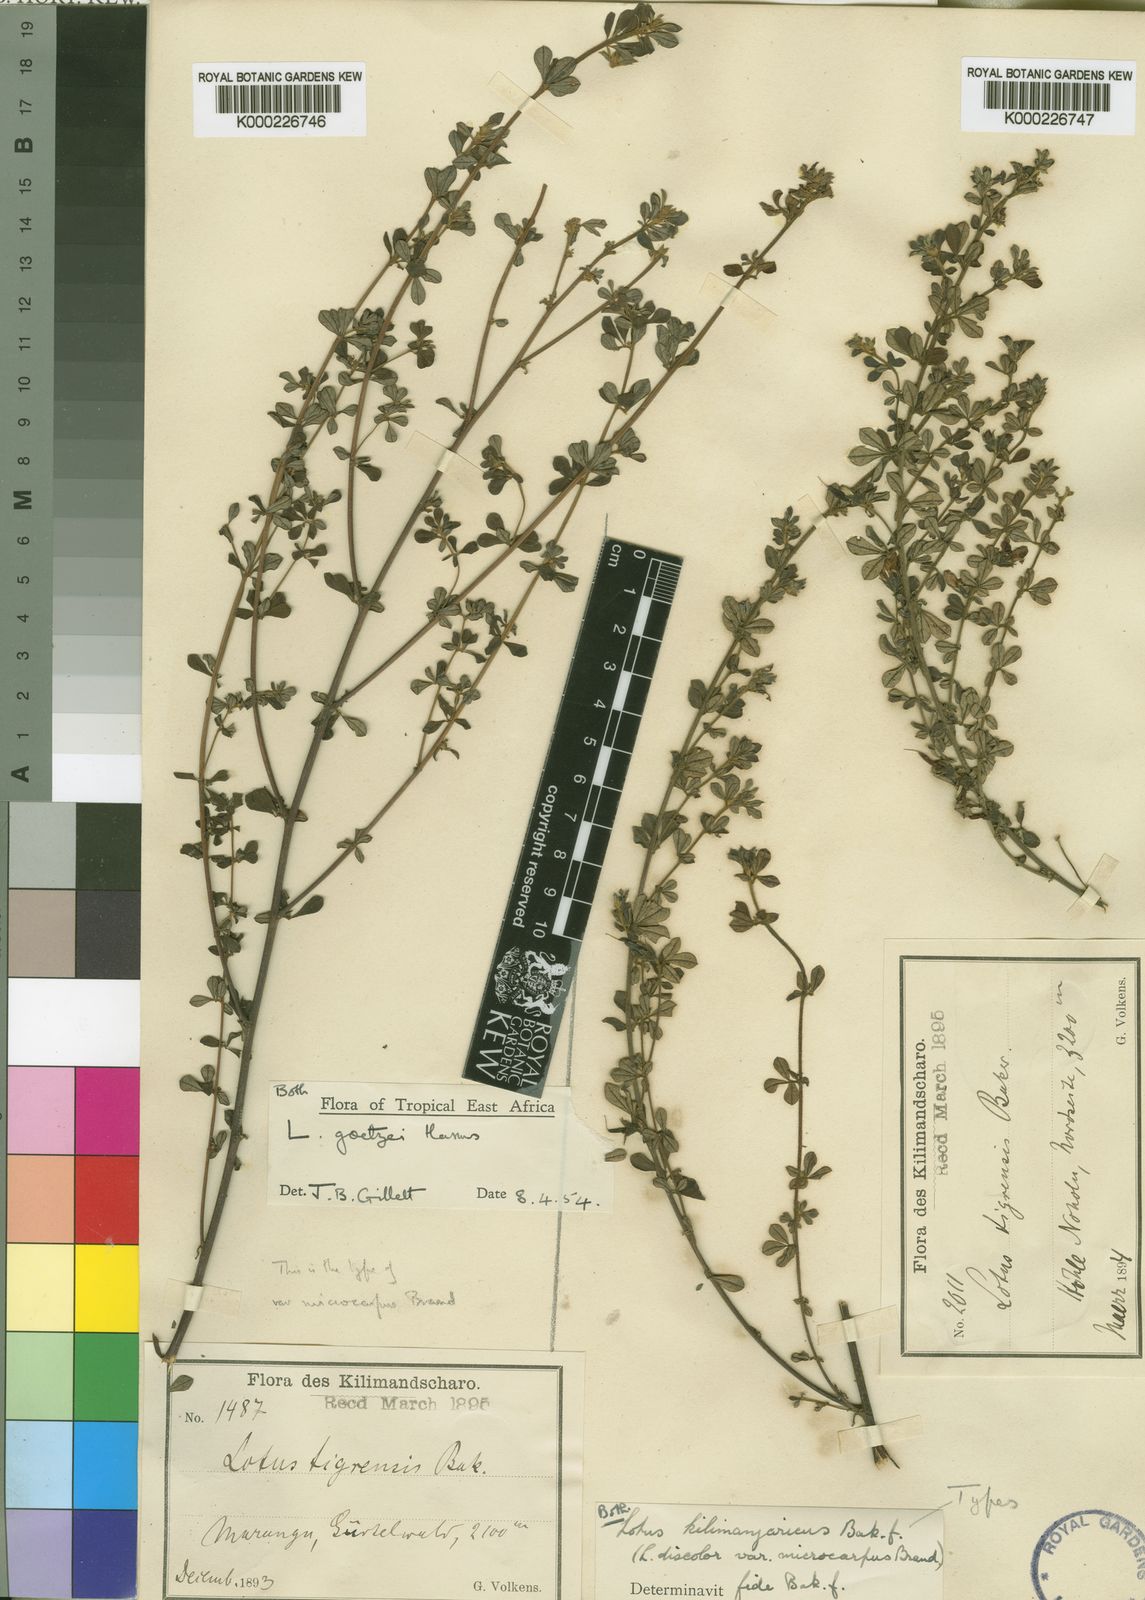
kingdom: Plantae
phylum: Tracheophyta
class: Magnoliopsida
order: Fabales
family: Fabaceae
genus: Lotus
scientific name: Lotus goetzei
